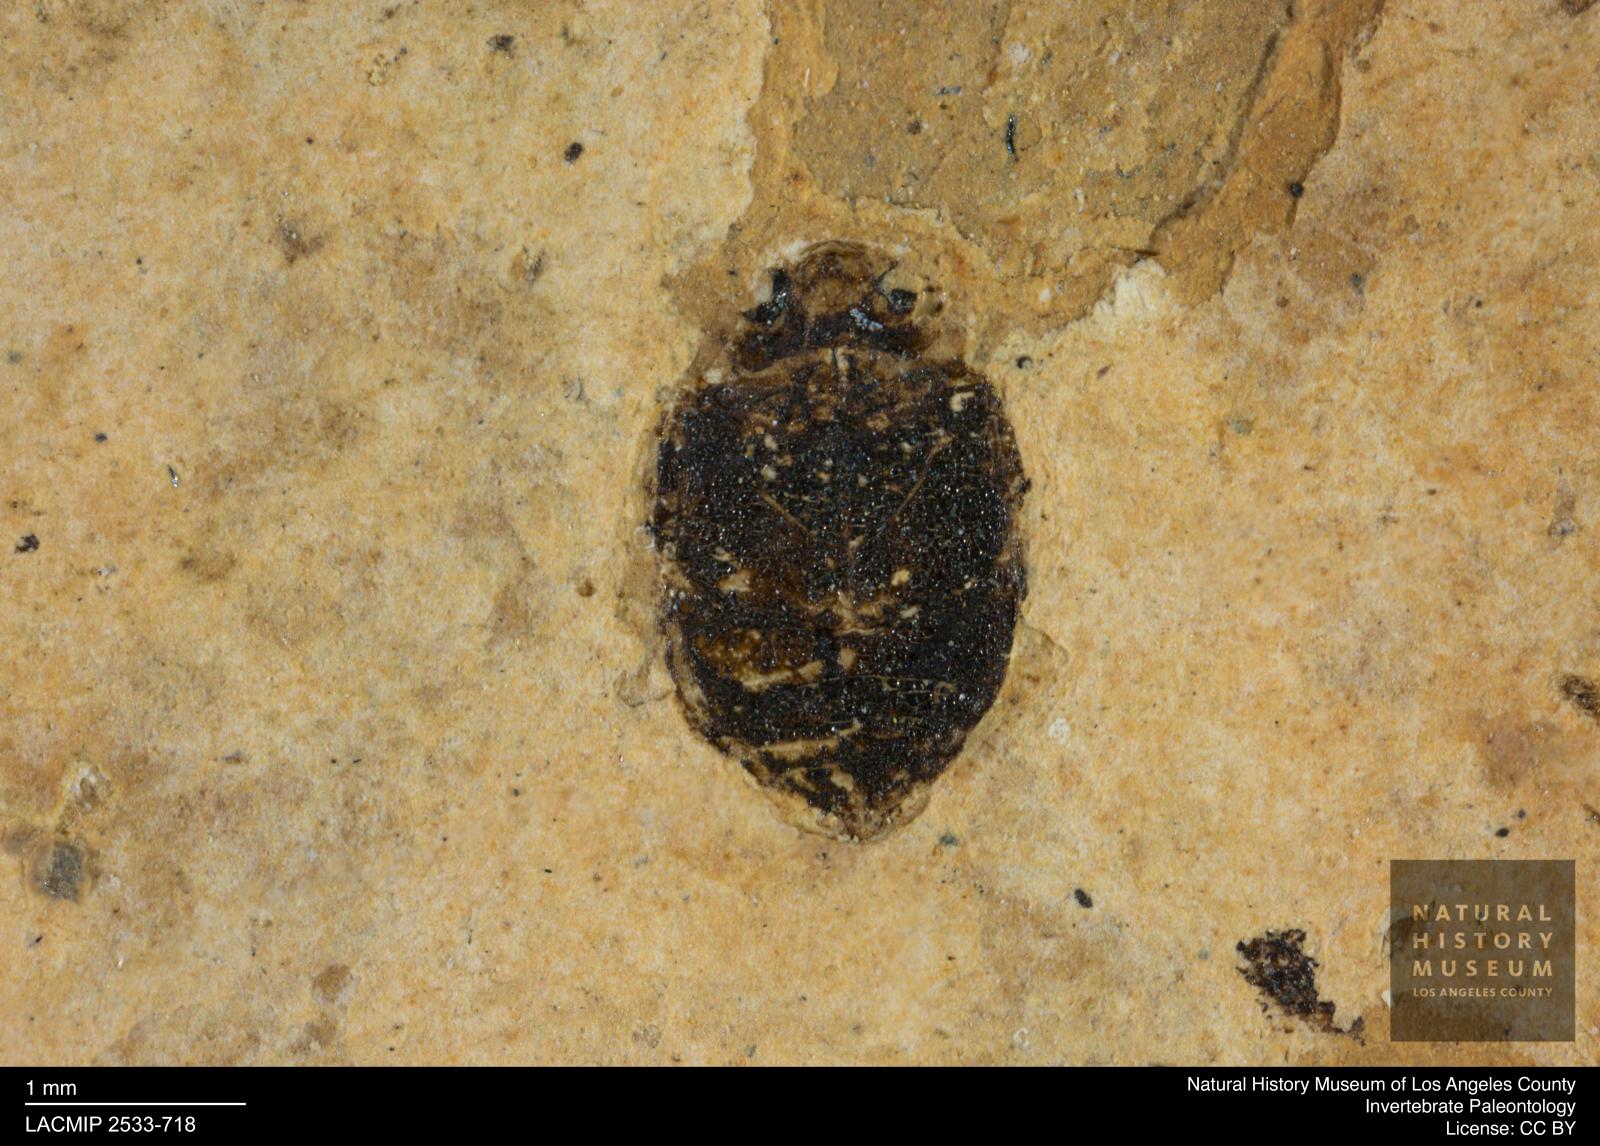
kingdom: Animalia
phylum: Arthropoda
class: Insecta
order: Coleoptera
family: Dytiscidae
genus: Oreodytes
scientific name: Oreodytes cryptolineatus
